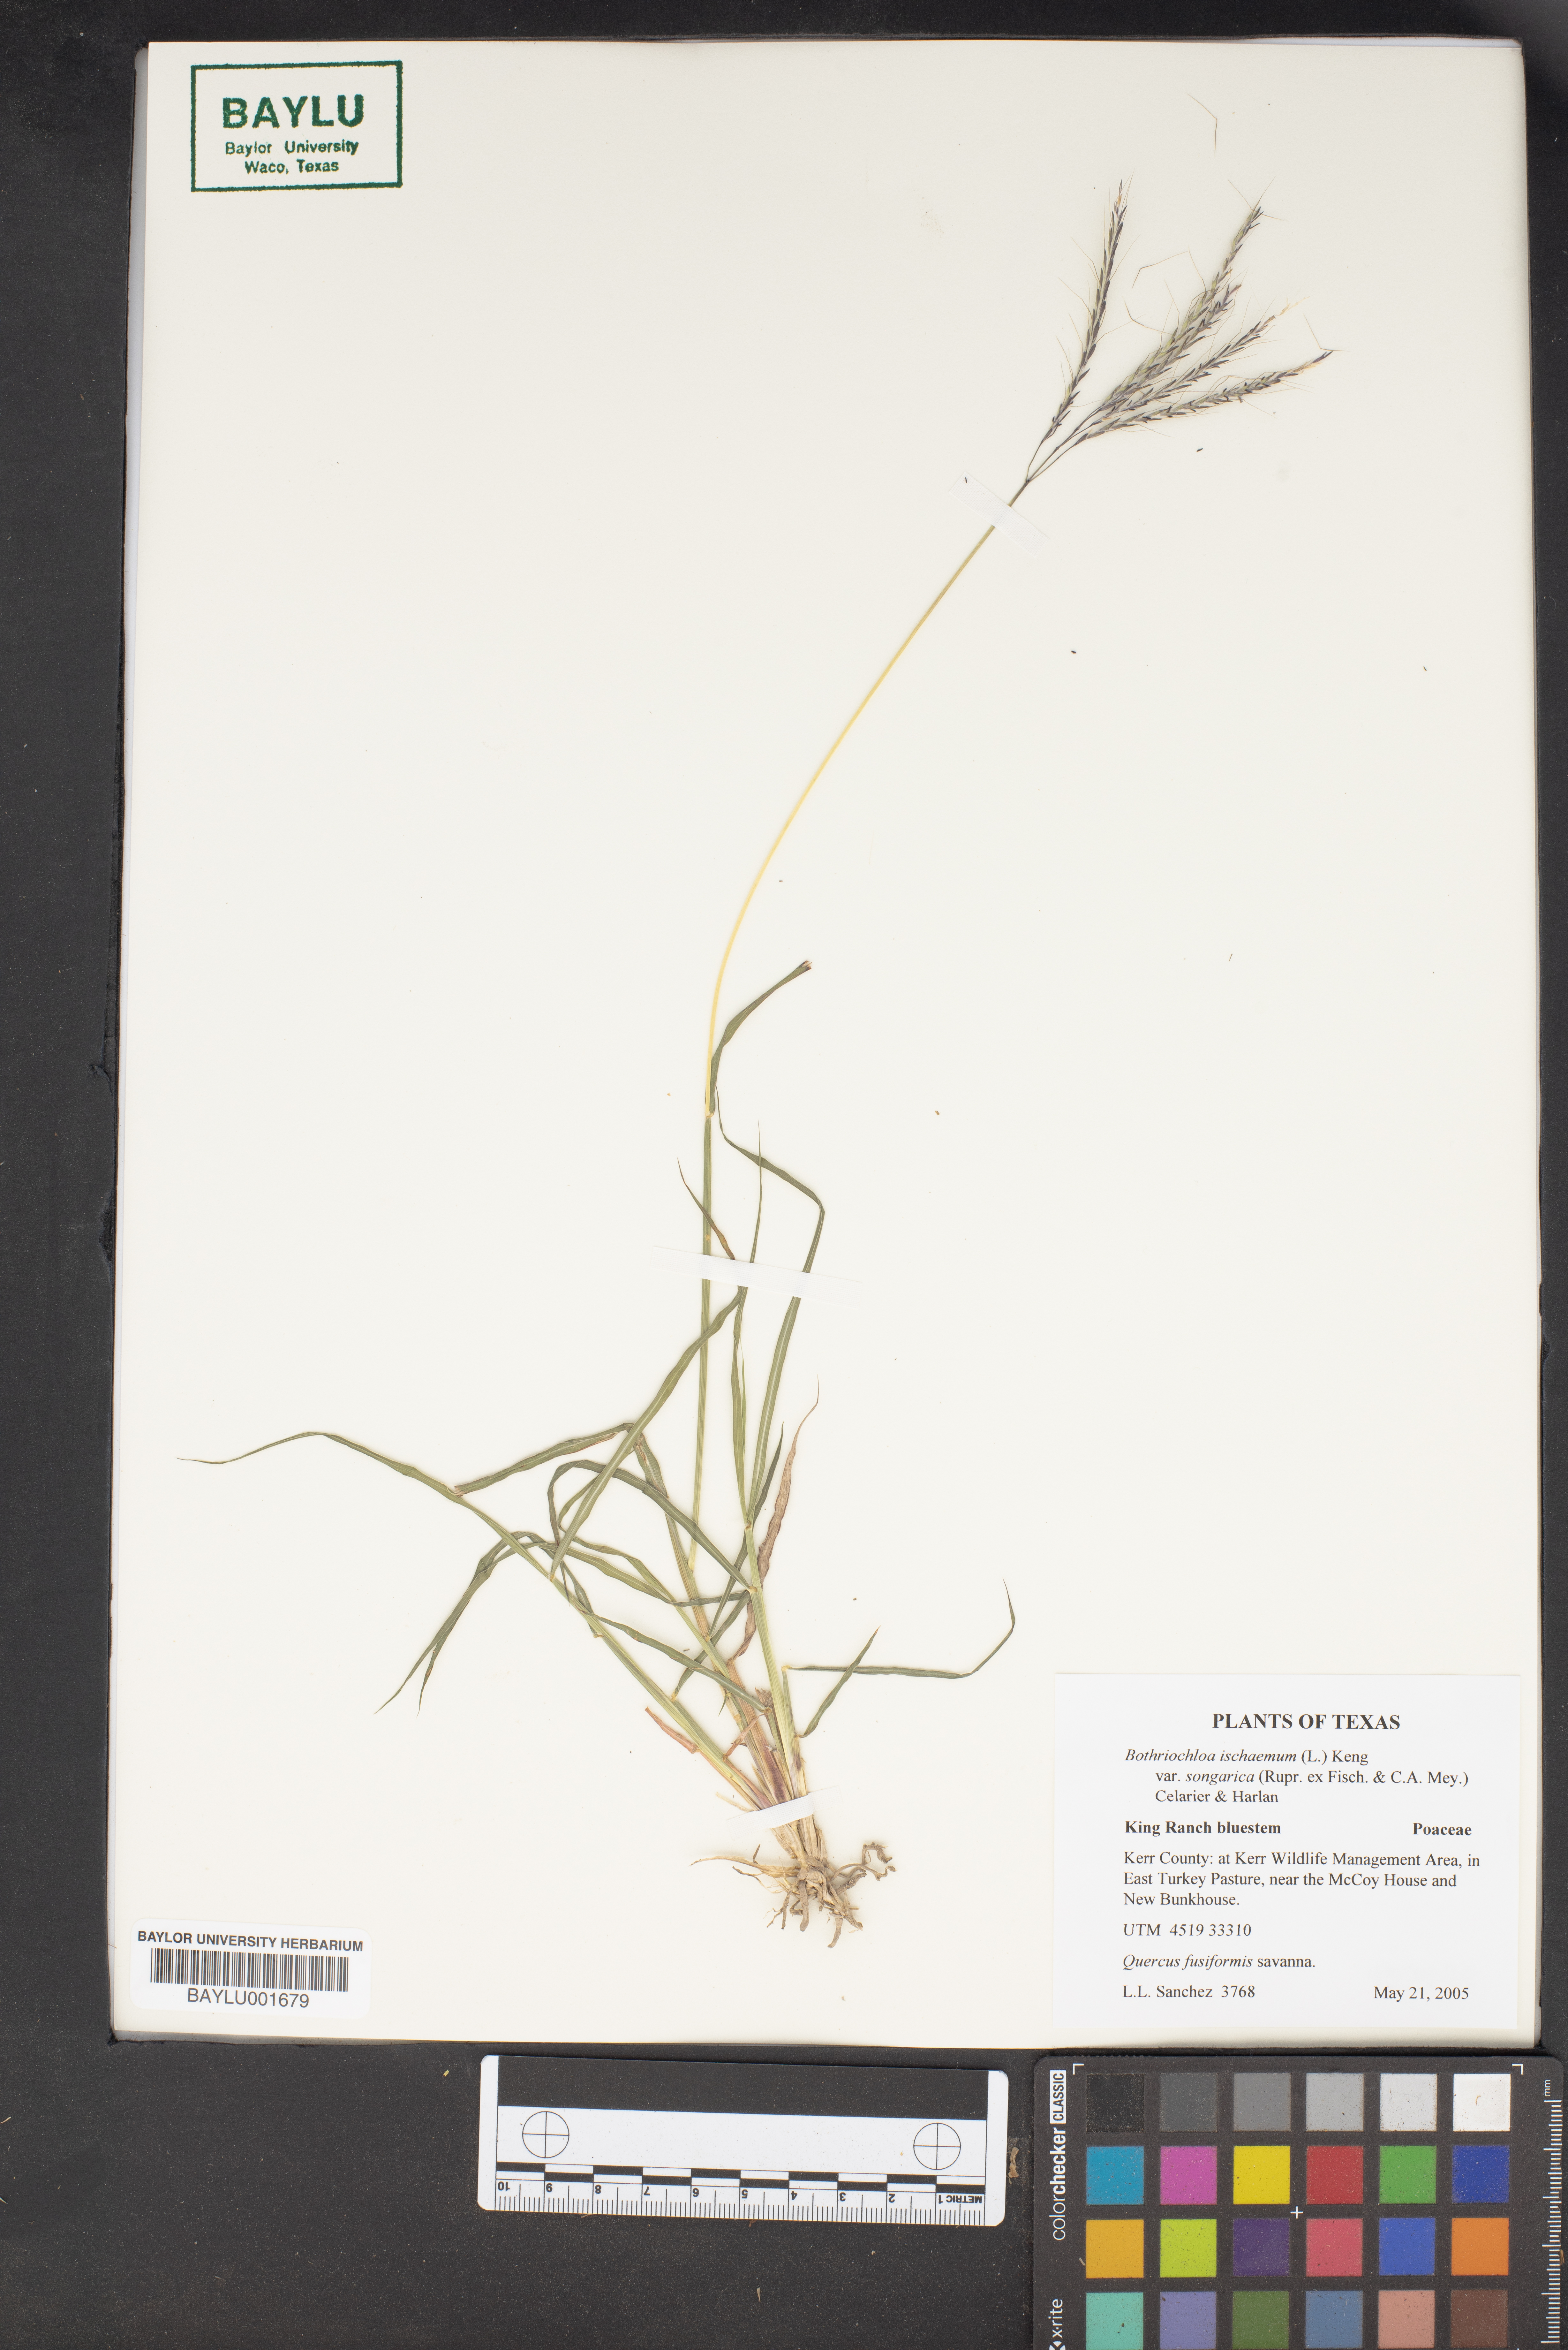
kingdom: Plantae
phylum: Tracheophyta
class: Liliopsida
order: Poales
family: Poaceae
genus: Bothriochloa
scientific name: Bothriochloa ischaemum
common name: Yellow bluestem
